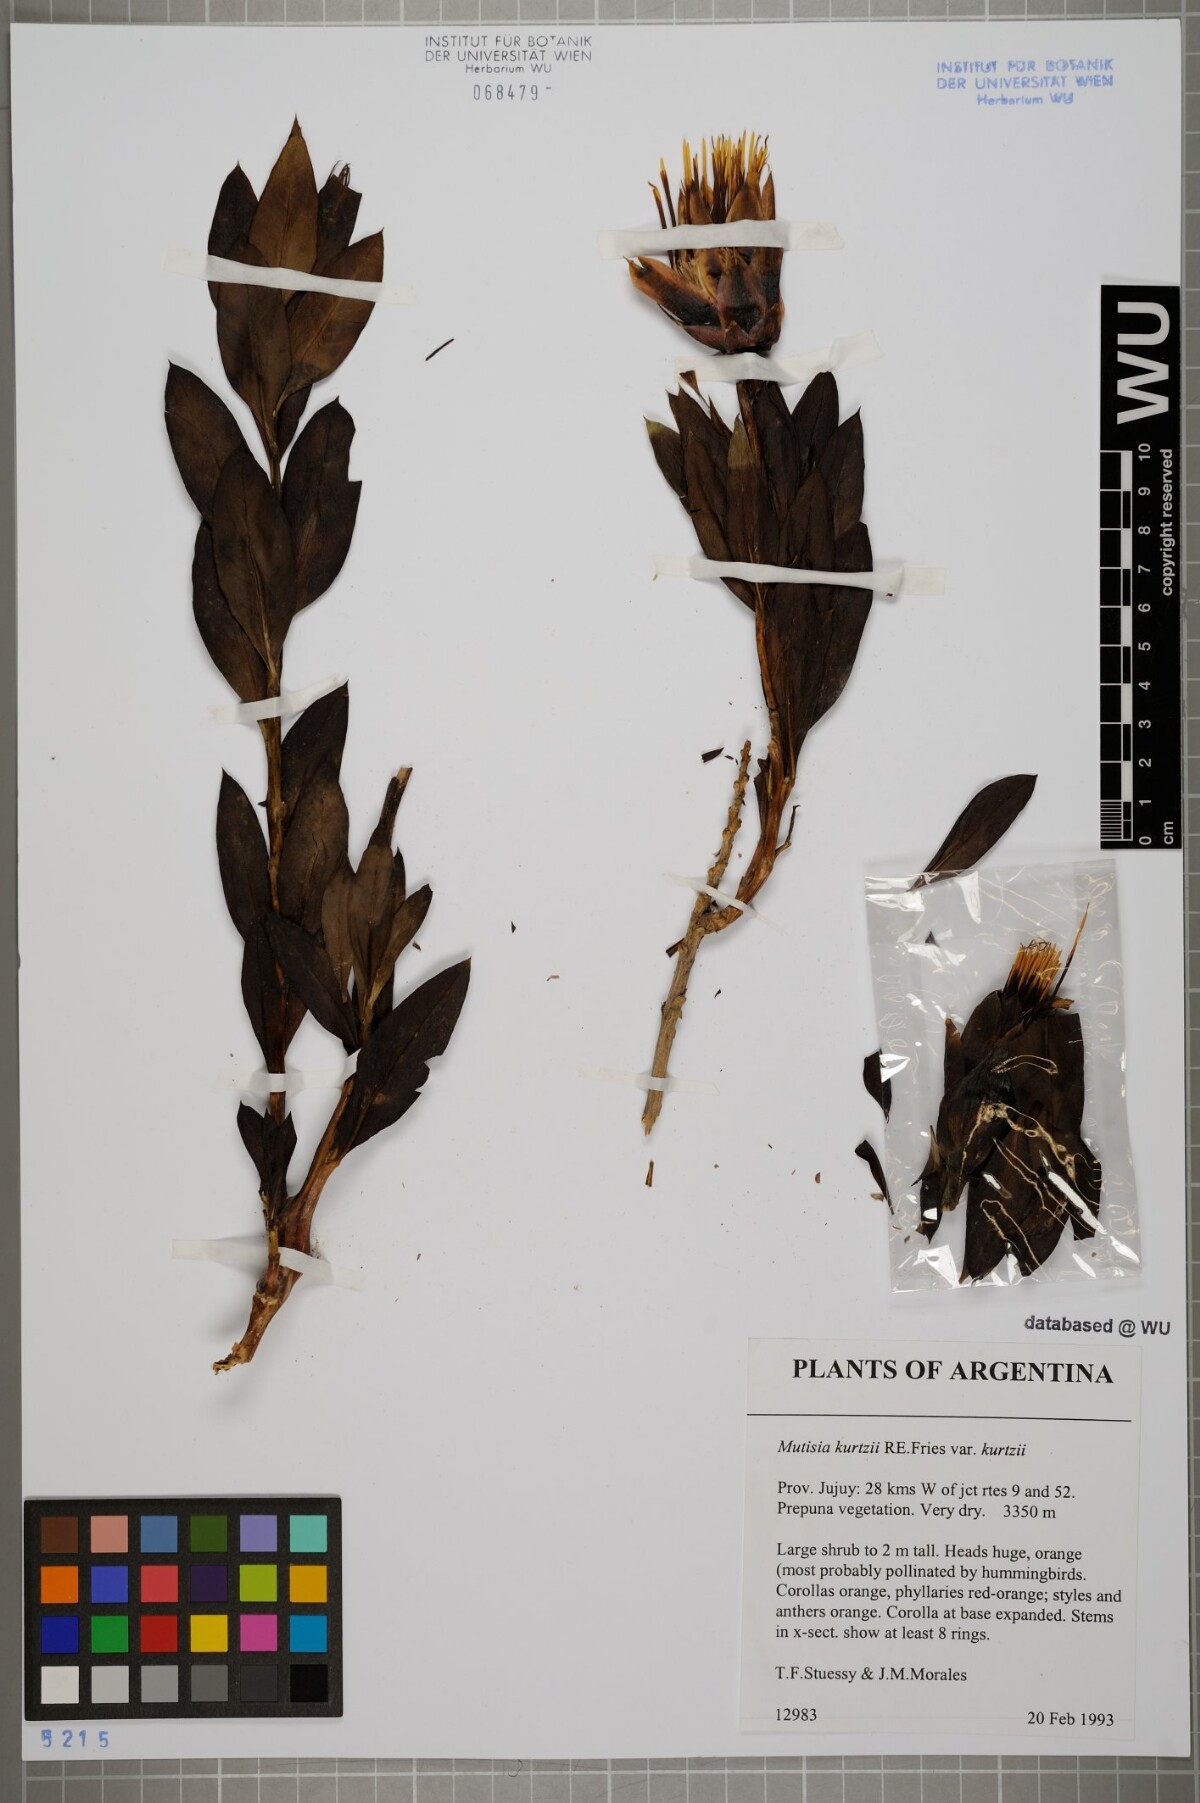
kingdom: Plantae
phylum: Tracheophyta
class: Magnoliopsida
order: Asterales
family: Asteraceae
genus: Mutisia
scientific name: Mutisia kurtzii
